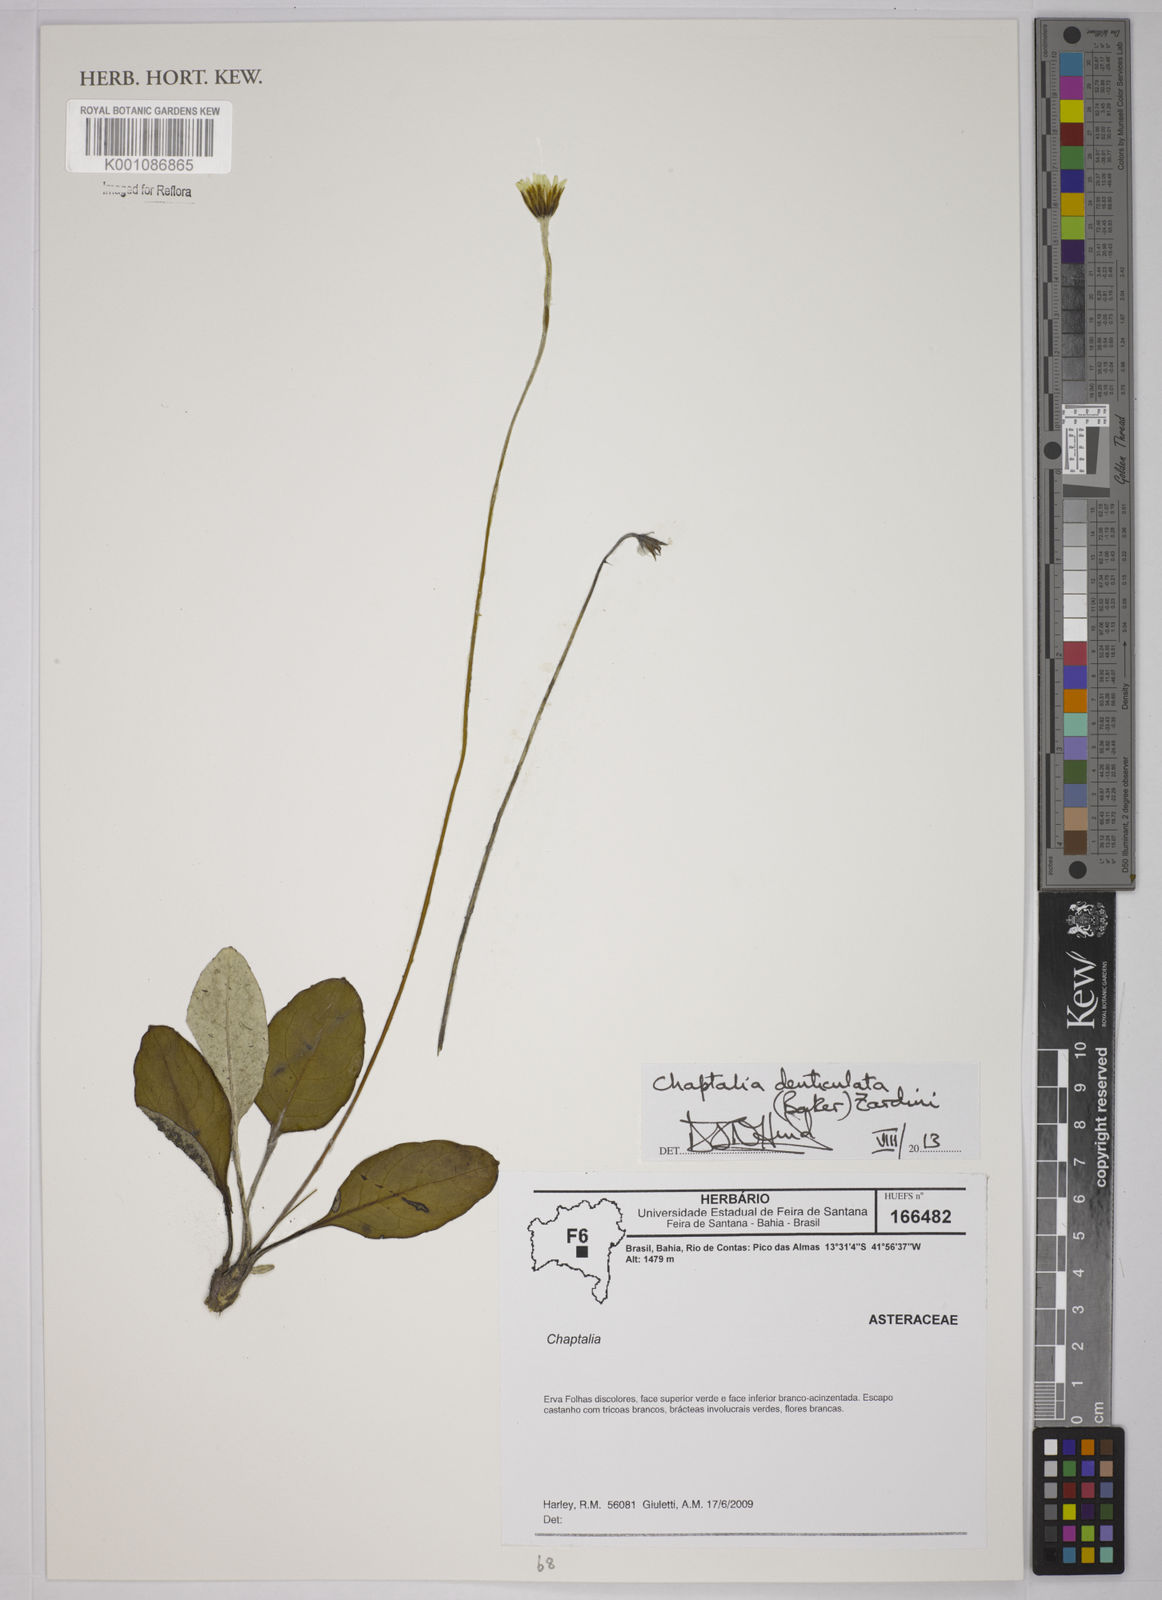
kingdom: Plantae
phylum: Tracheophyta
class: Magnoliopsida
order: Asterales
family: Asteraceae
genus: Chaptalia
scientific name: Chaptalia denticulata
